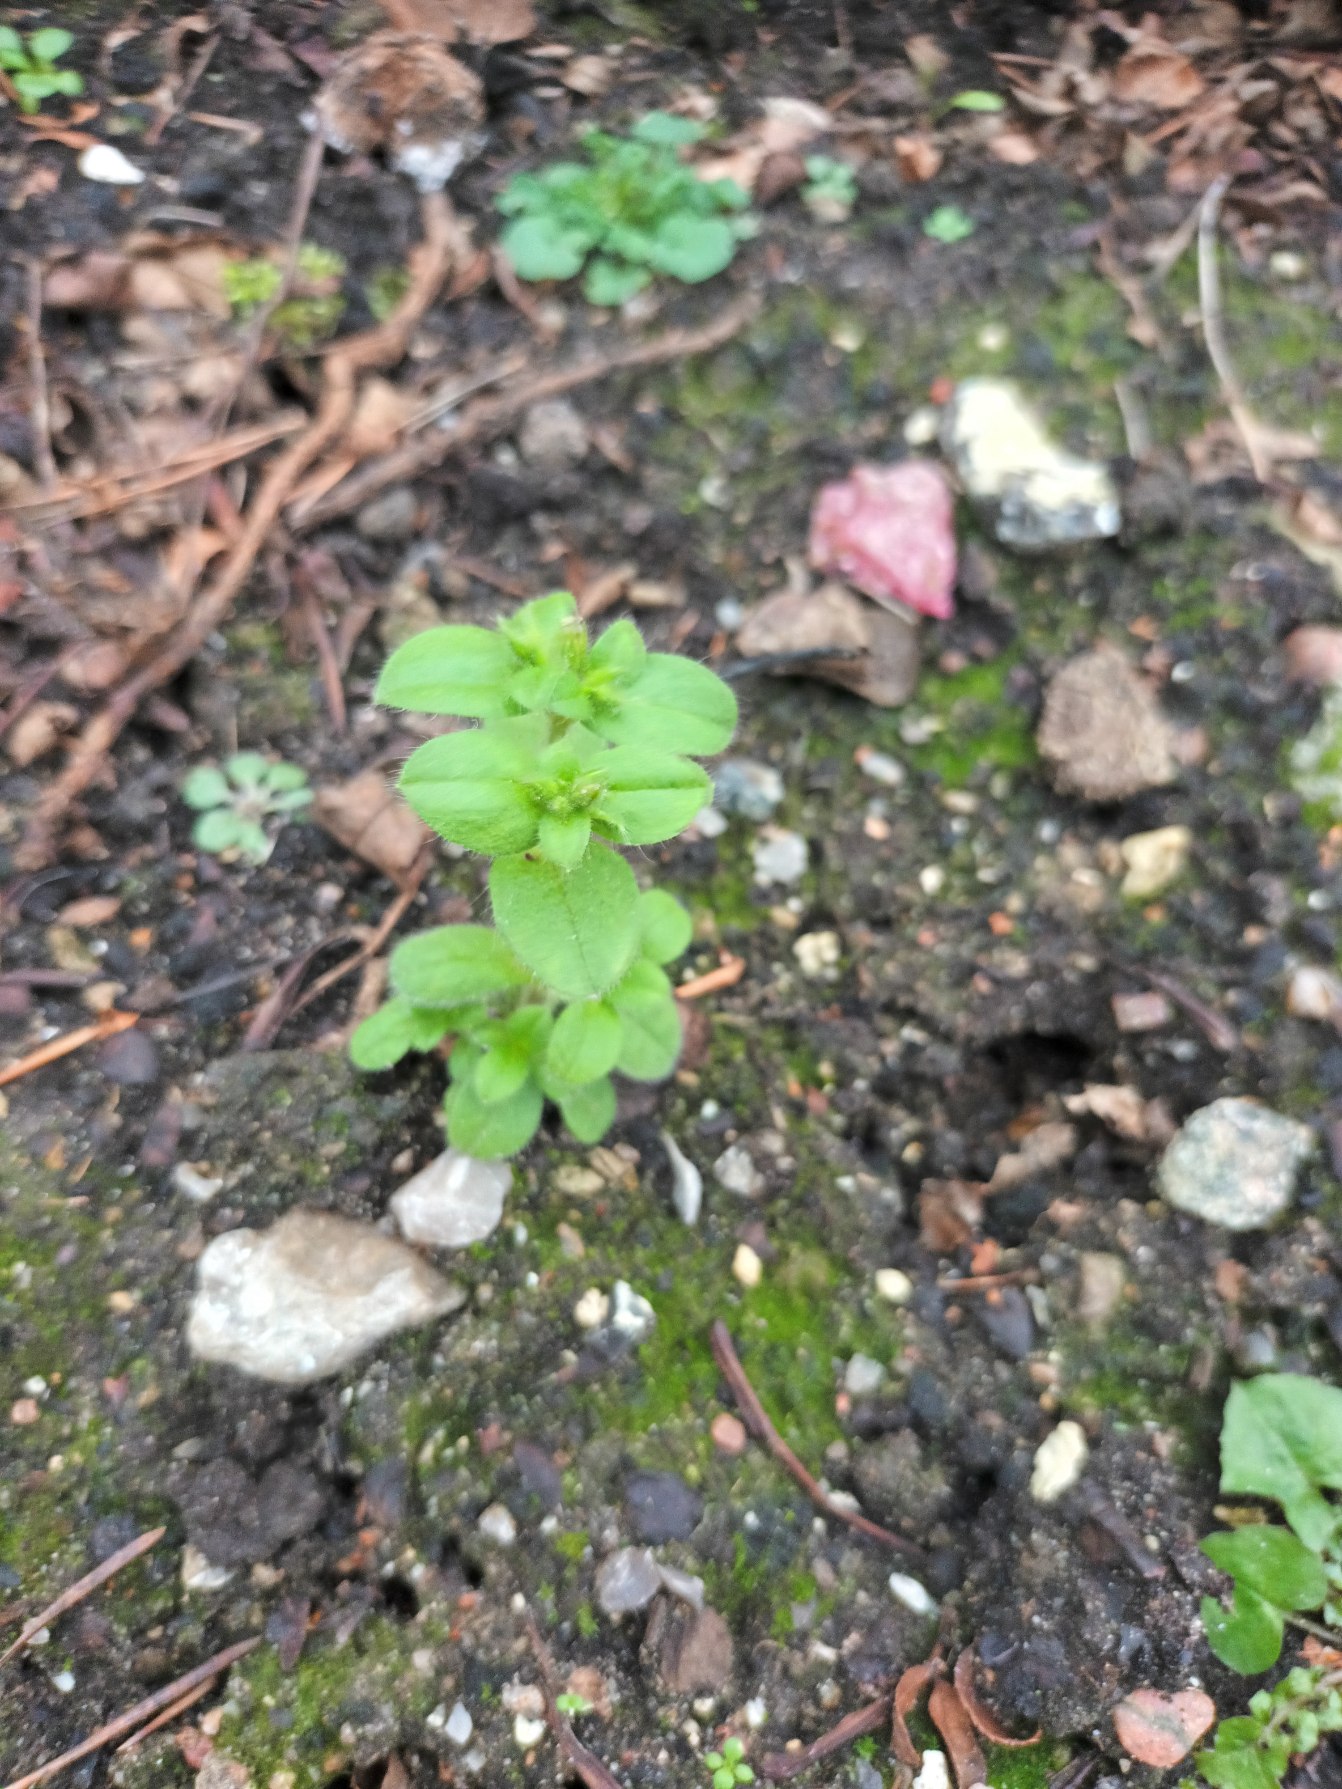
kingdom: Plantae
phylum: Tracheophyta
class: Magnoliopsida
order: Caryophyllales
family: Caryophyllaceae
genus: Cerastium
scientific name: Cerastium glomeratum
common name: Opret hønsetarm
